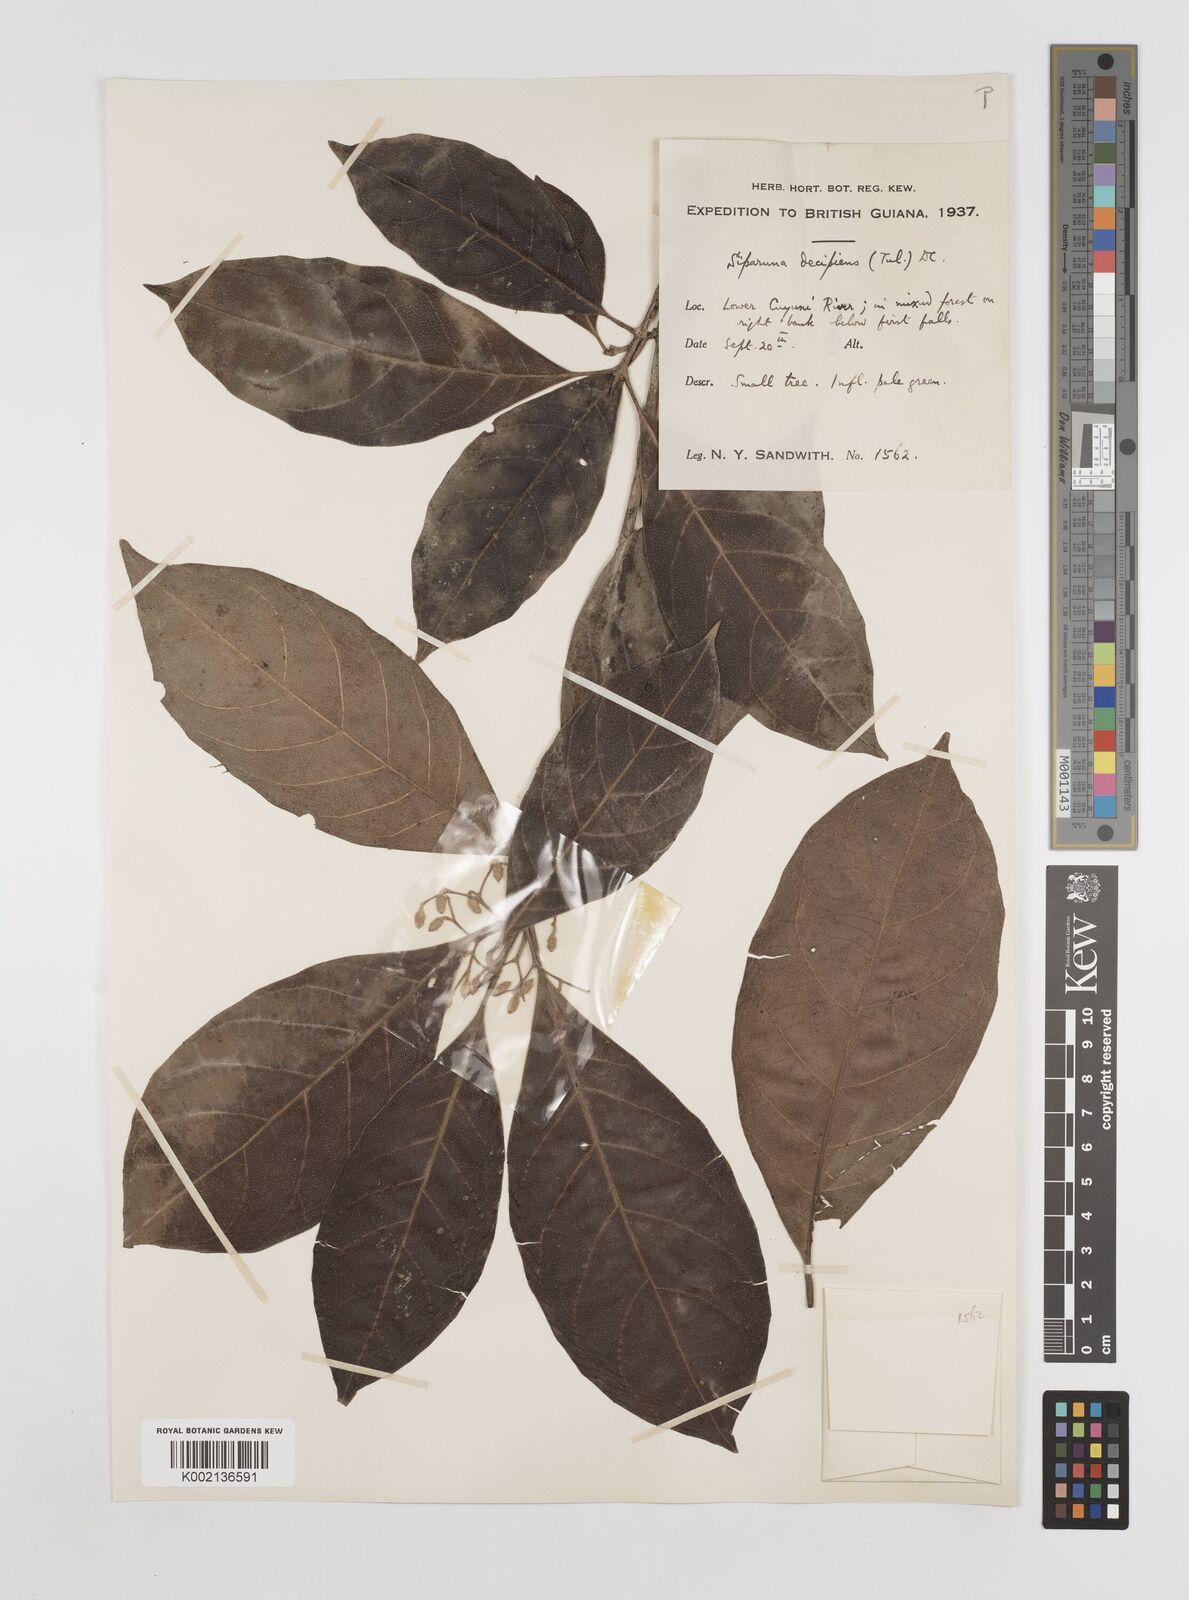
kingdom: Plantae
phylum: Tracheophyta
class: Magnoliopsida
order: Laurales
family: Siparunaceae
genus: Siparuna
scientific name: Siparuna decipiens
